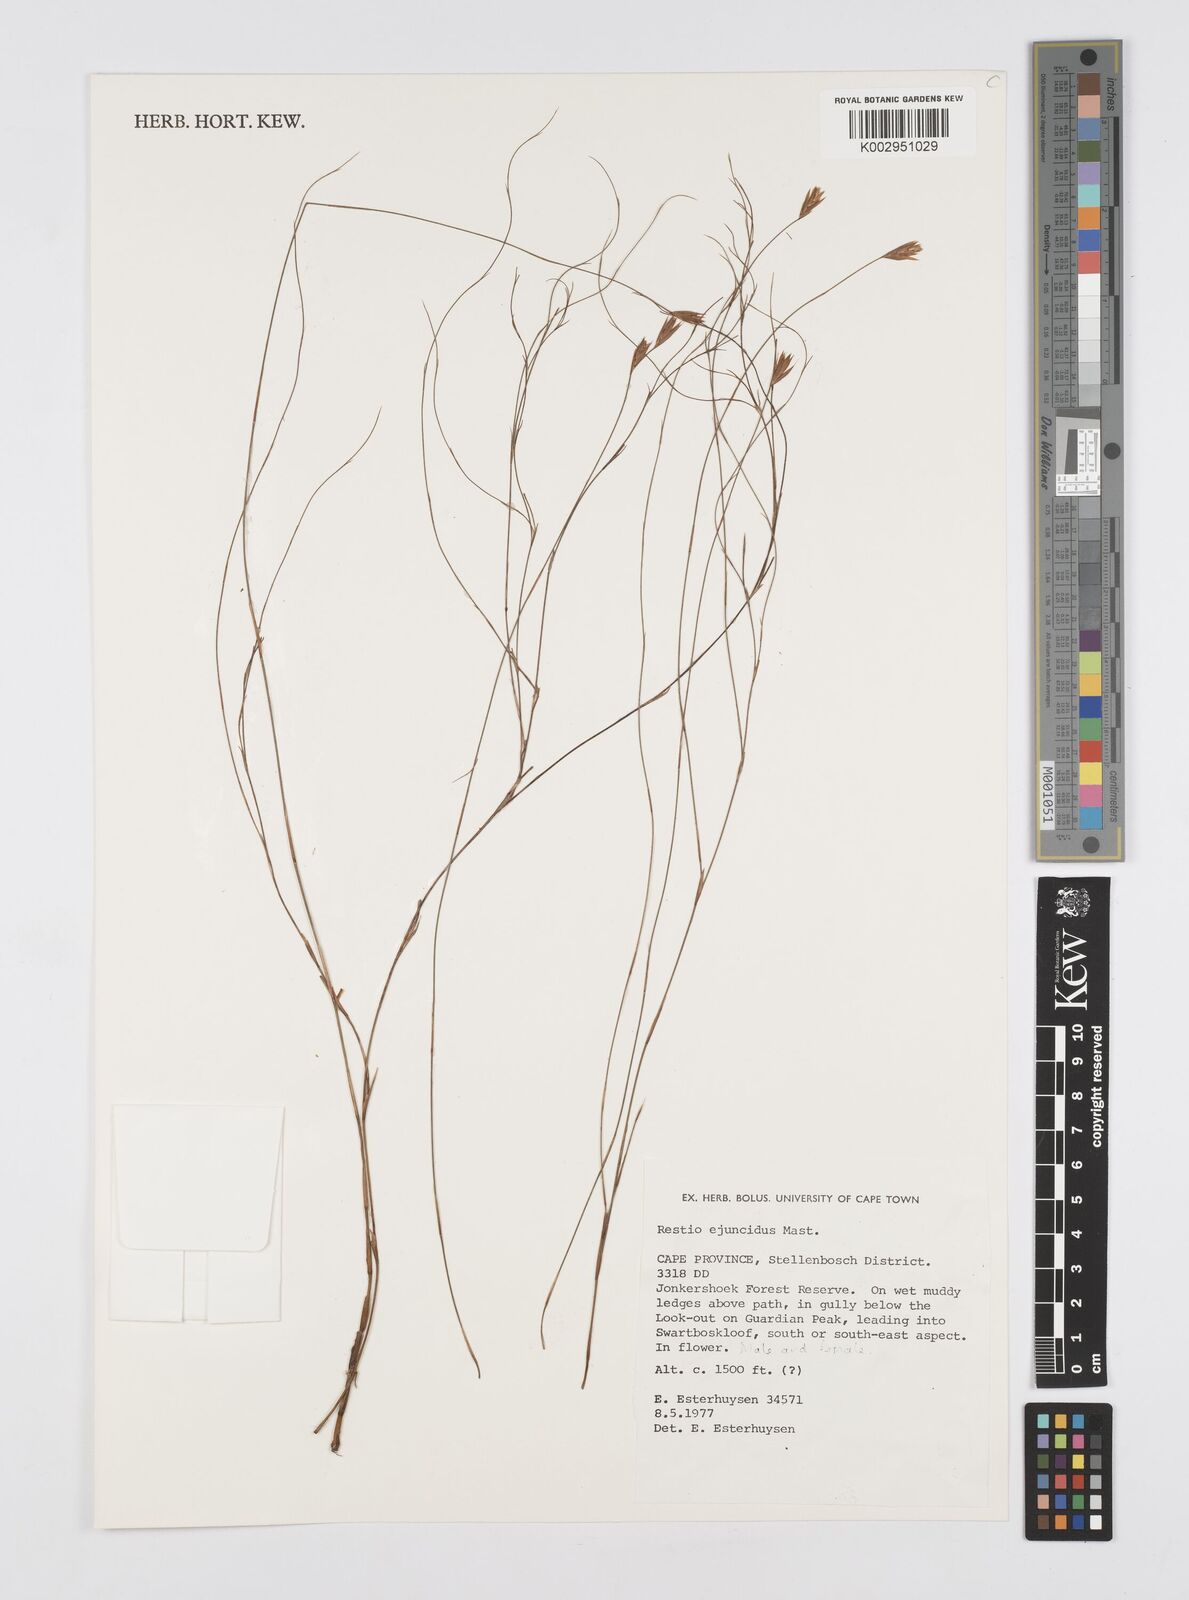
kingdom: Plantae
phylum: Tracheophyta
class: Liliopsida
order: Poales
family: Restionaceae
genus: Restio
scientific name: Restio ejuncidus
